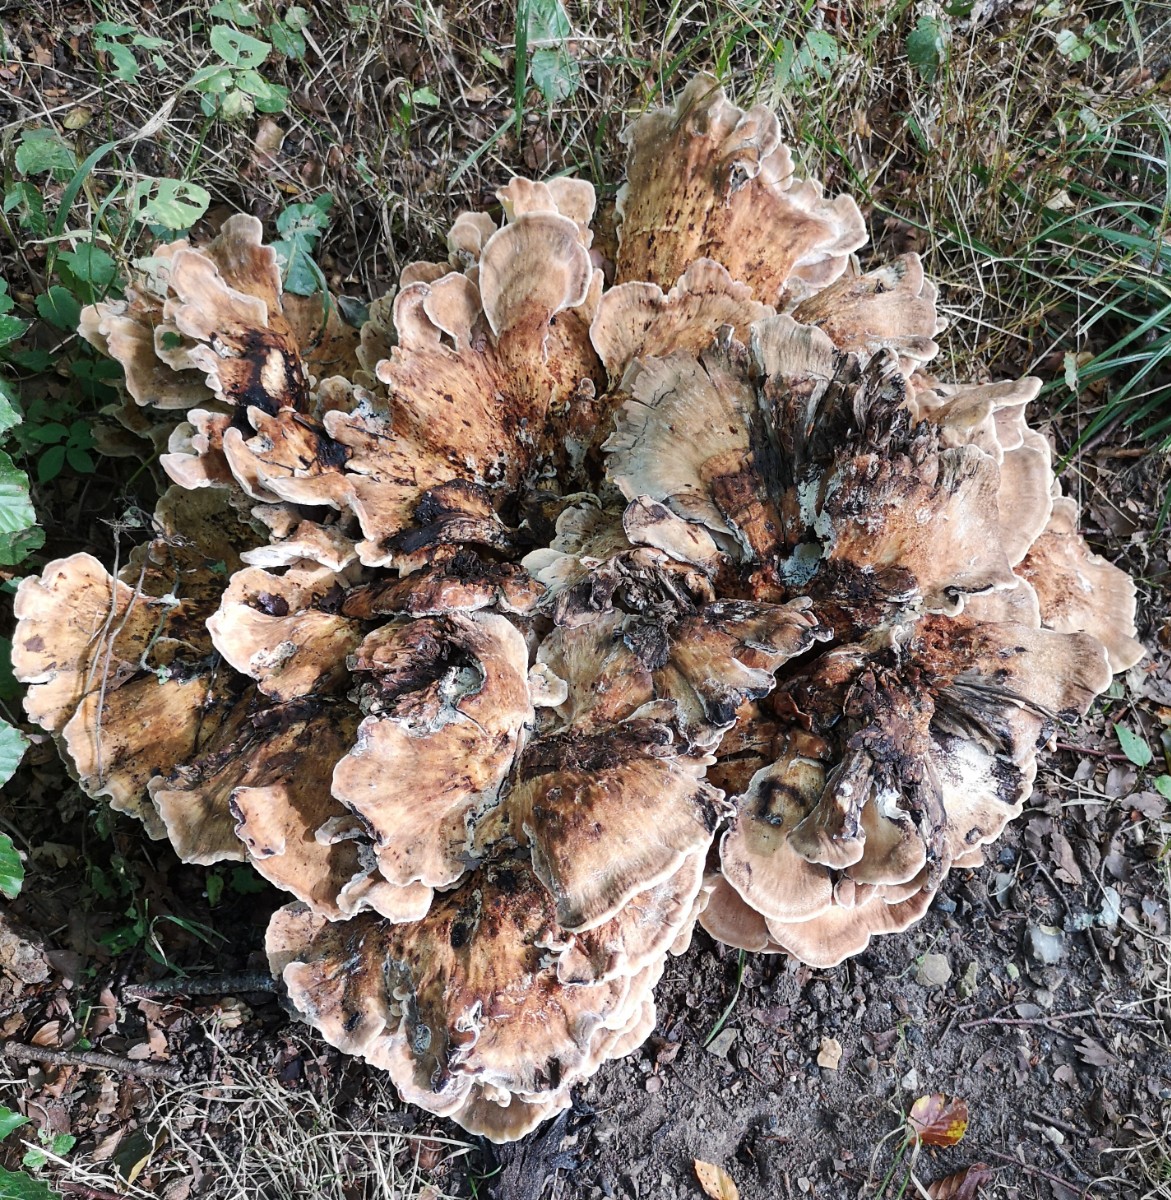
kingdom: Fungi
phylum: Basidiomycota
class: Agaricomycetes
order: Polyporales
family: Meripilaceae
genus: Meripilus
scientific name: Meripilus giganteus
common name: kæmpeporesvamp
